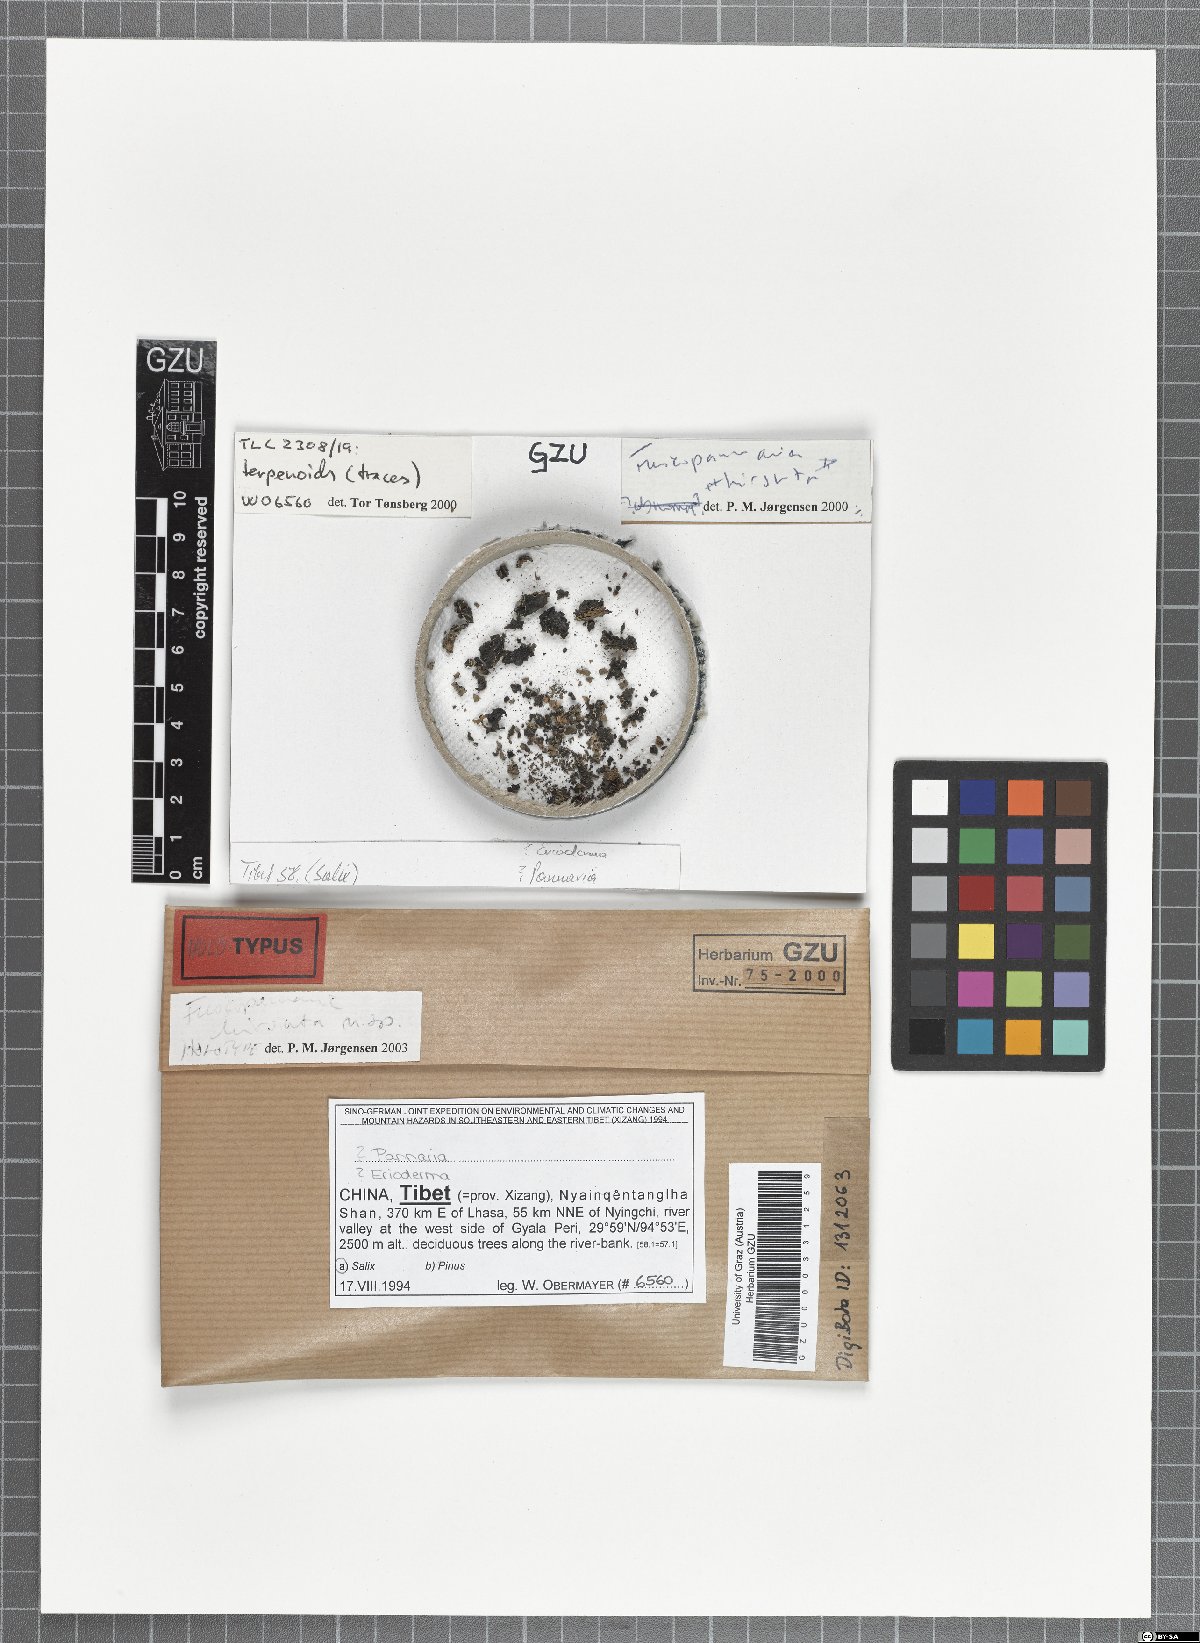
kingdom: Fungi
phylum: Ascomycota
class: Lecanoromycetes
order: Peltigerales
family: Pannariaceae
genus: Fuscopannaria
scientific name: Fuscopannaria hirsuta
